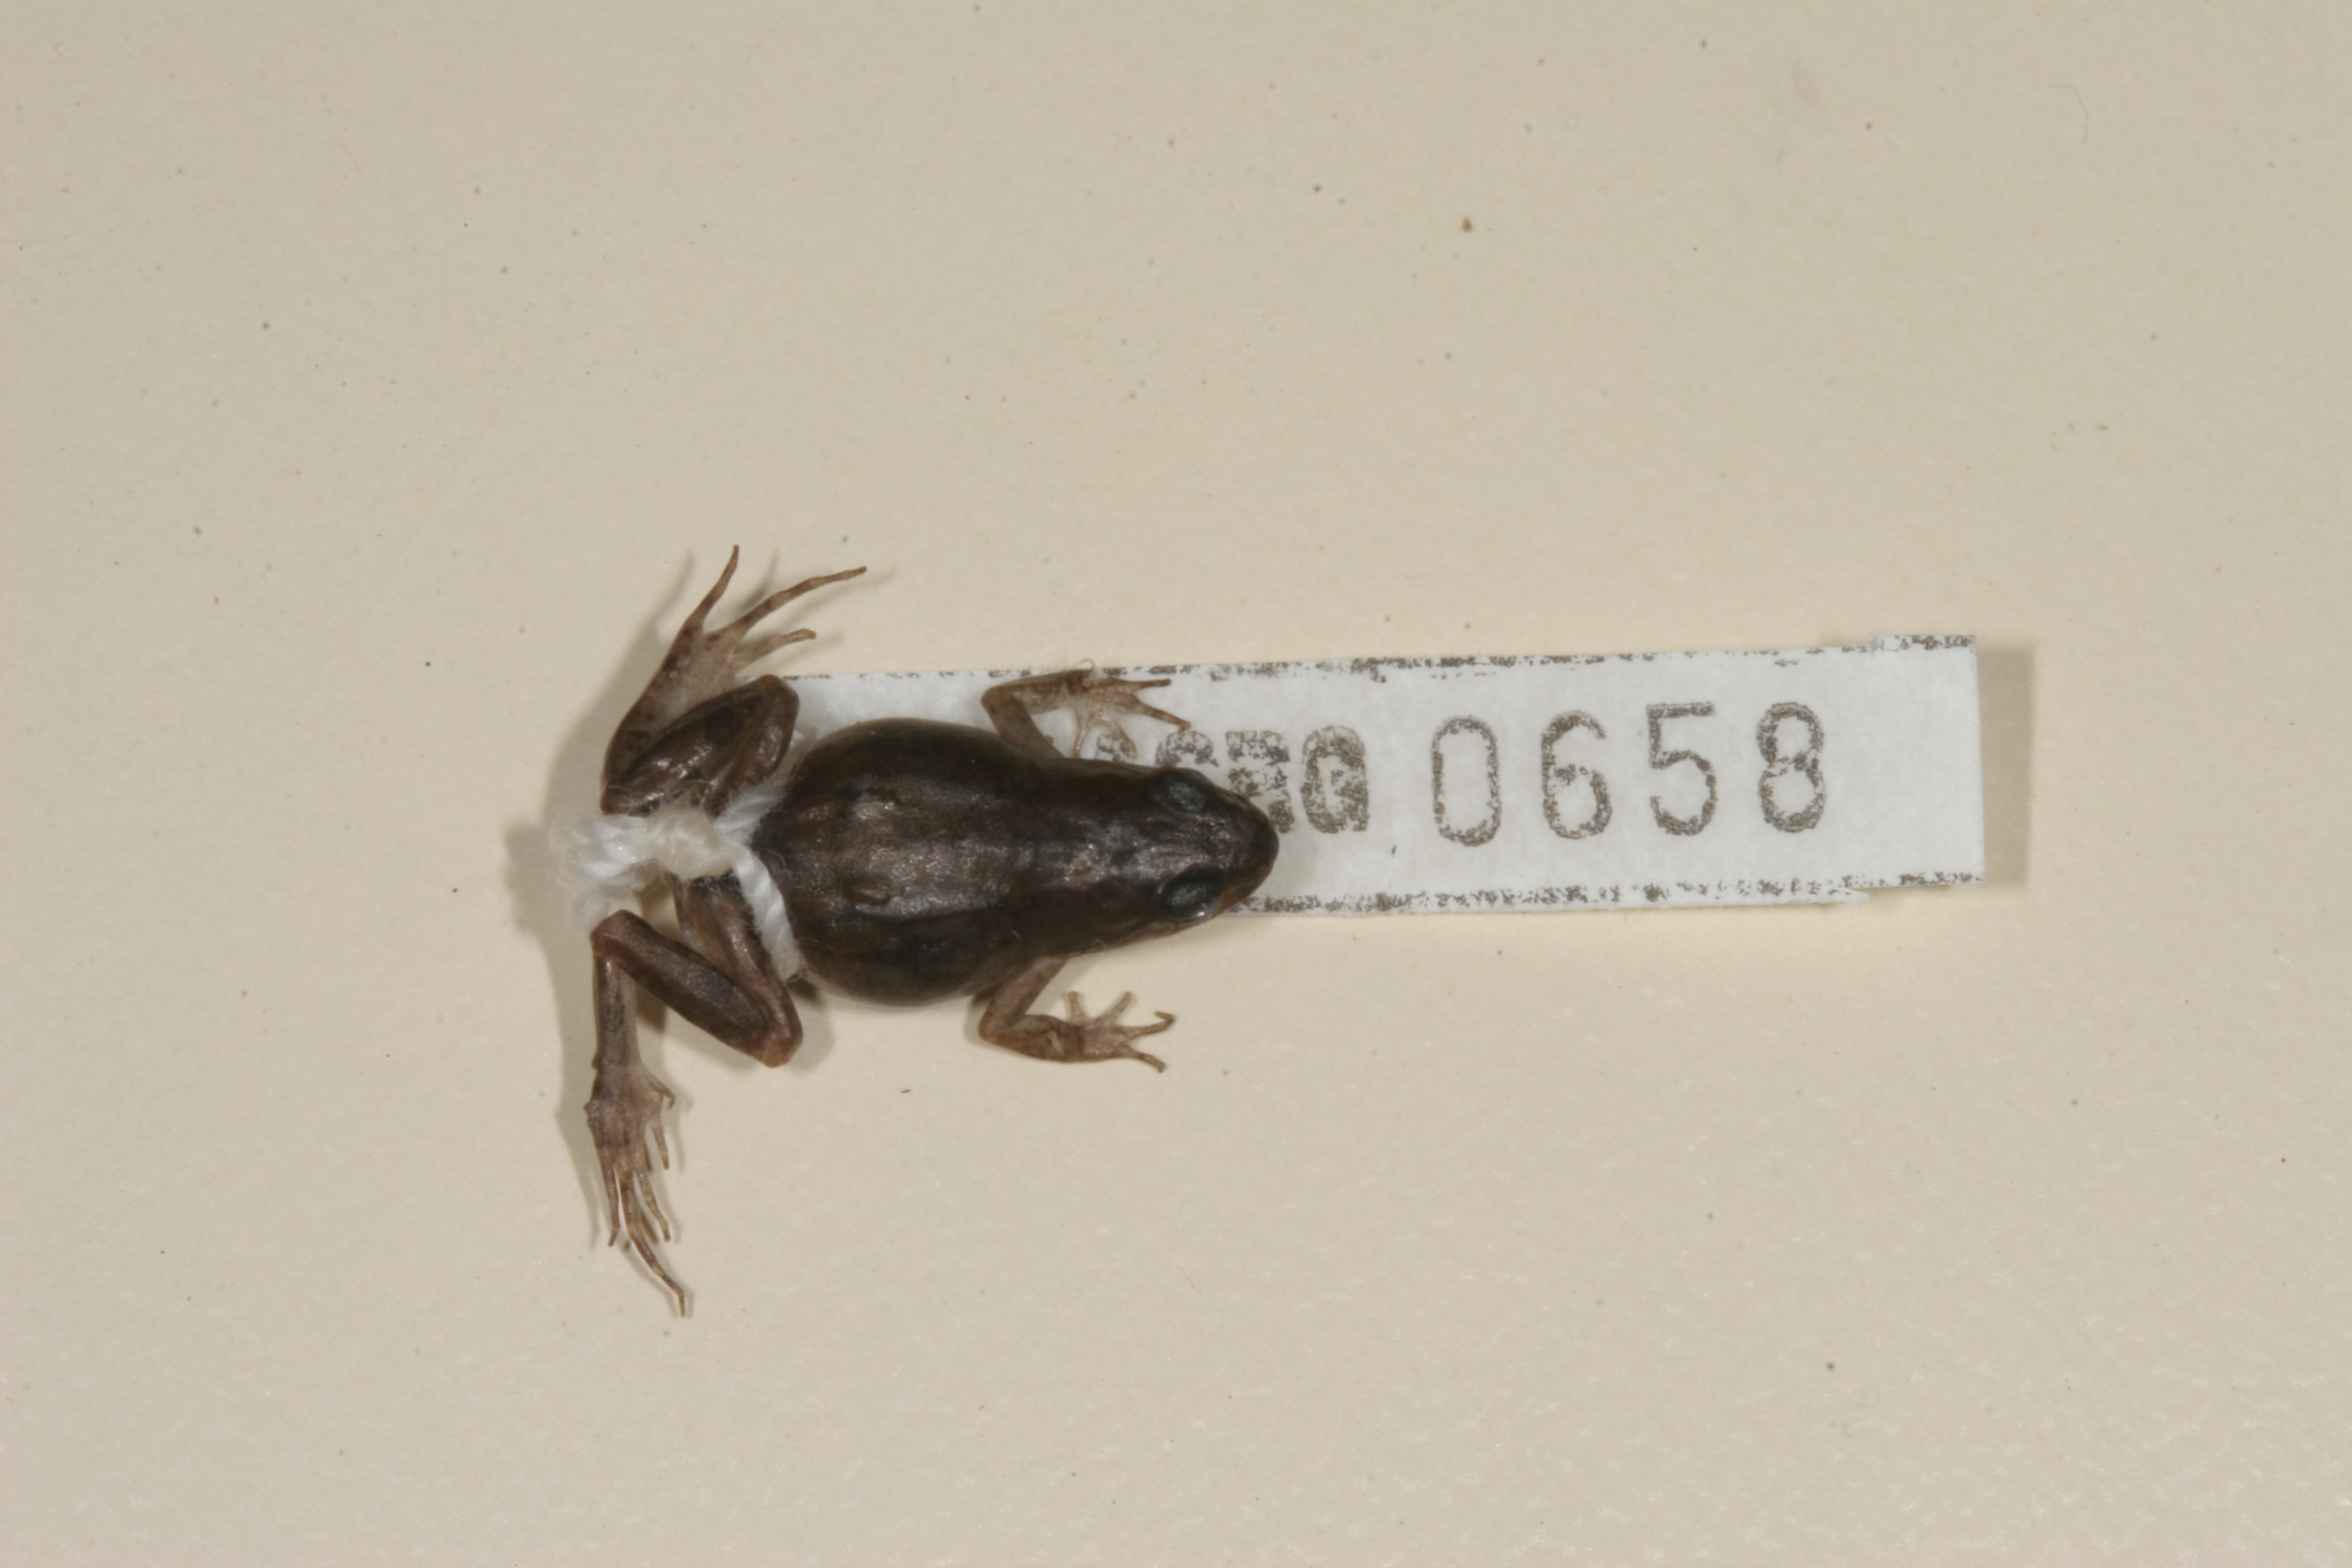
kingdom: Animalia
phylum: Chordata
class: Amphibia
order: Anura
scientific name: Anura
